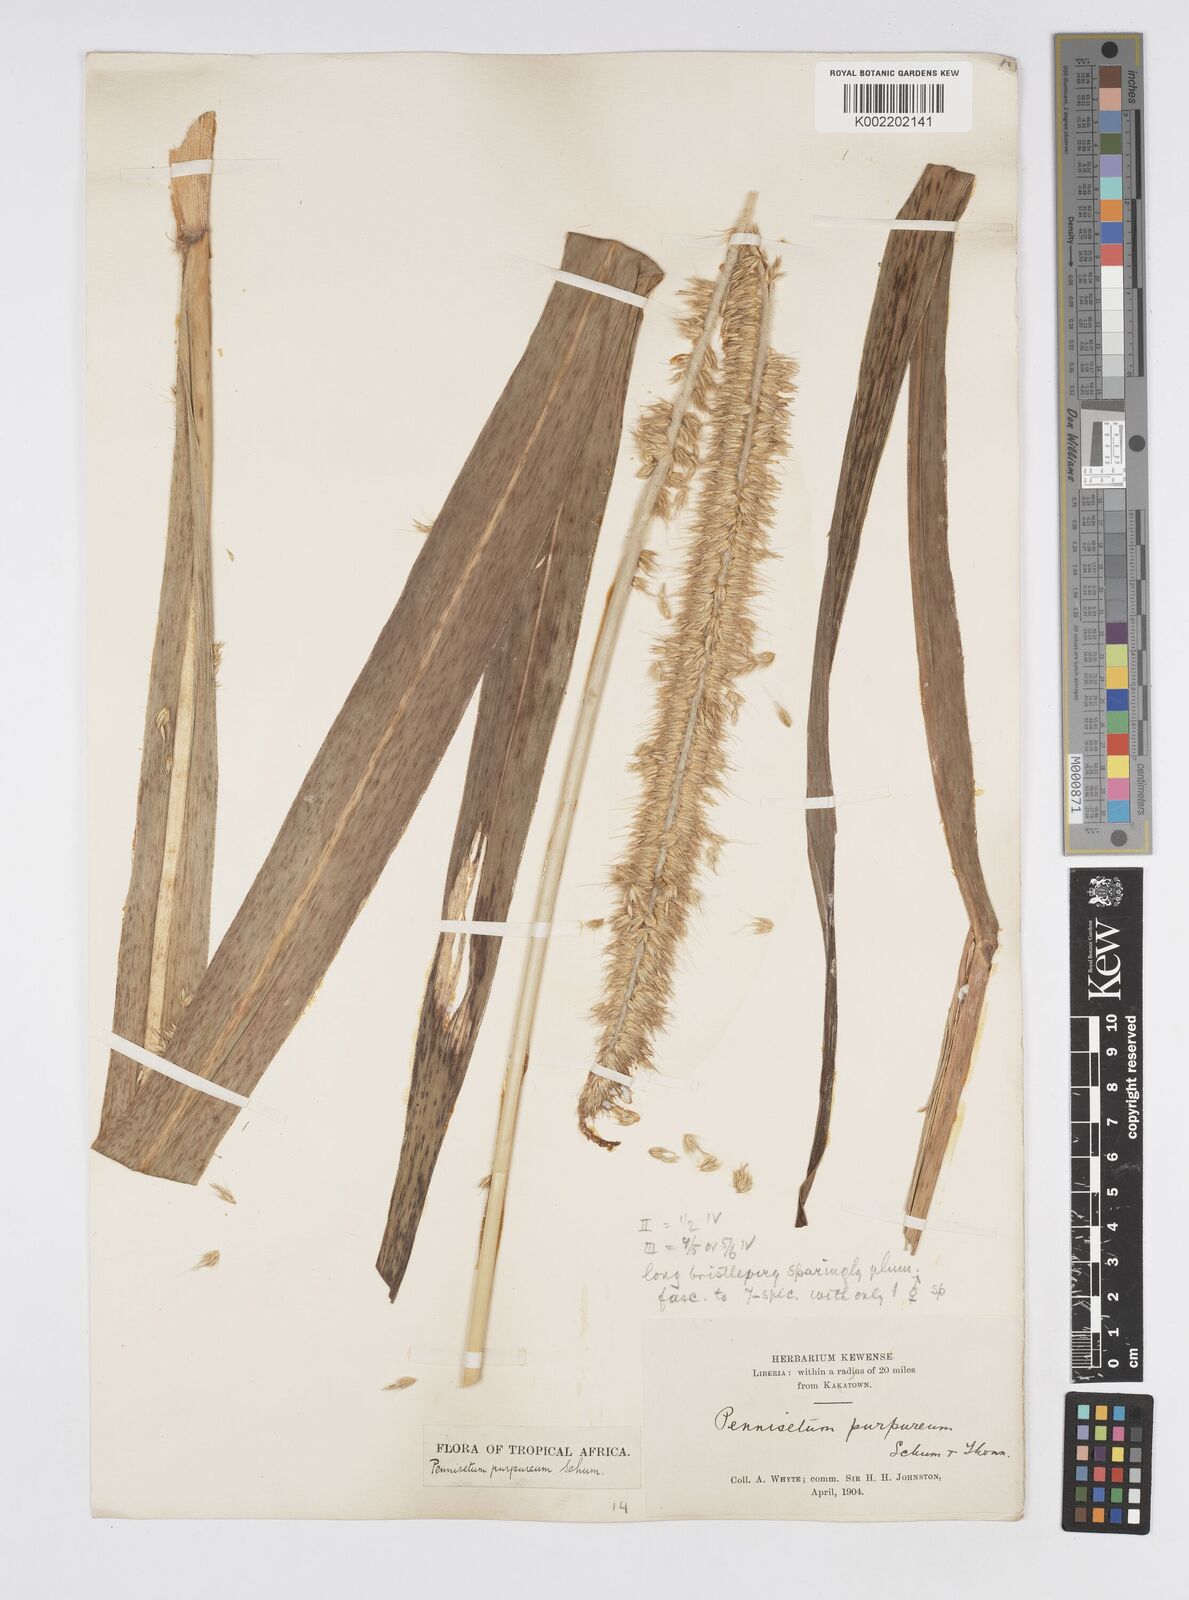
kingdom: Plantae
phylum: Tracheophyta
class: Liliopsida
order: Poales
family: Poaceae
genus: Cenchrus
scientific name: Cenchrus purpureus
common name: Elephant grass
